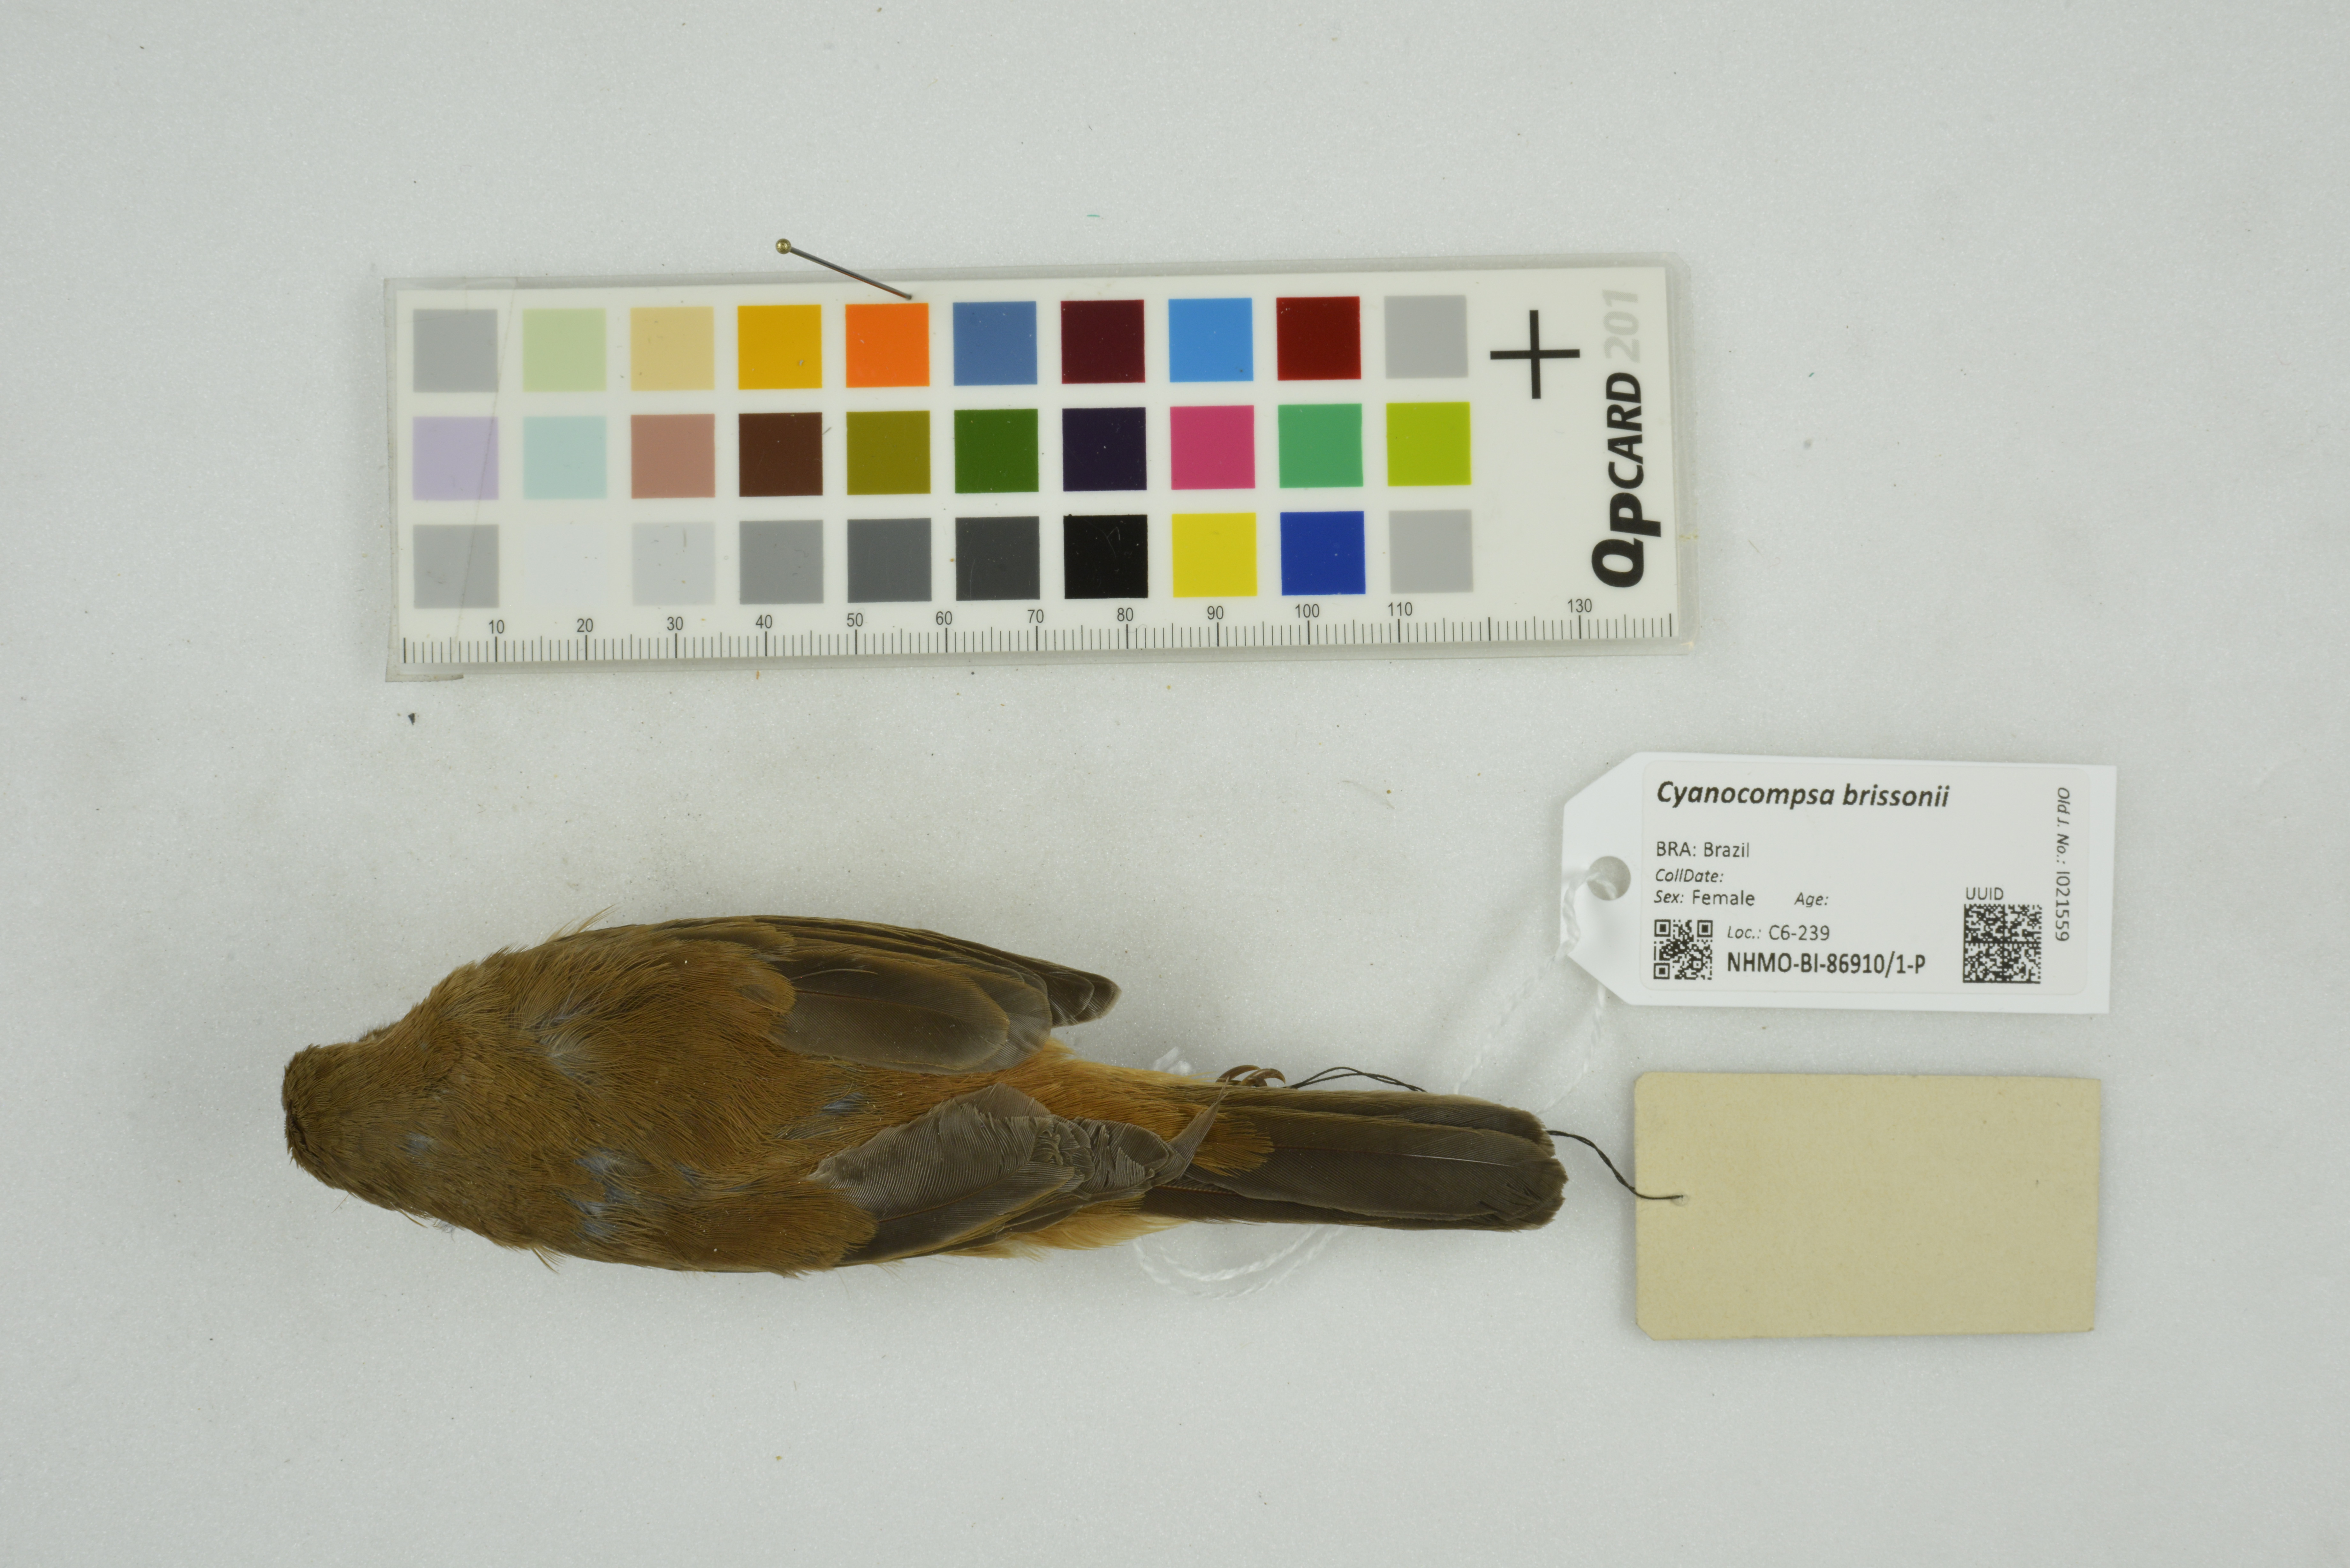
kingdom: Animalia
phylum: Chordata
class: Aves
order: Passeriformes
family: Cardinalidae
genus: Cyanoloxia
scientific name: Cyanoloxia brissonii
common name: Ultramarine grosbeak
